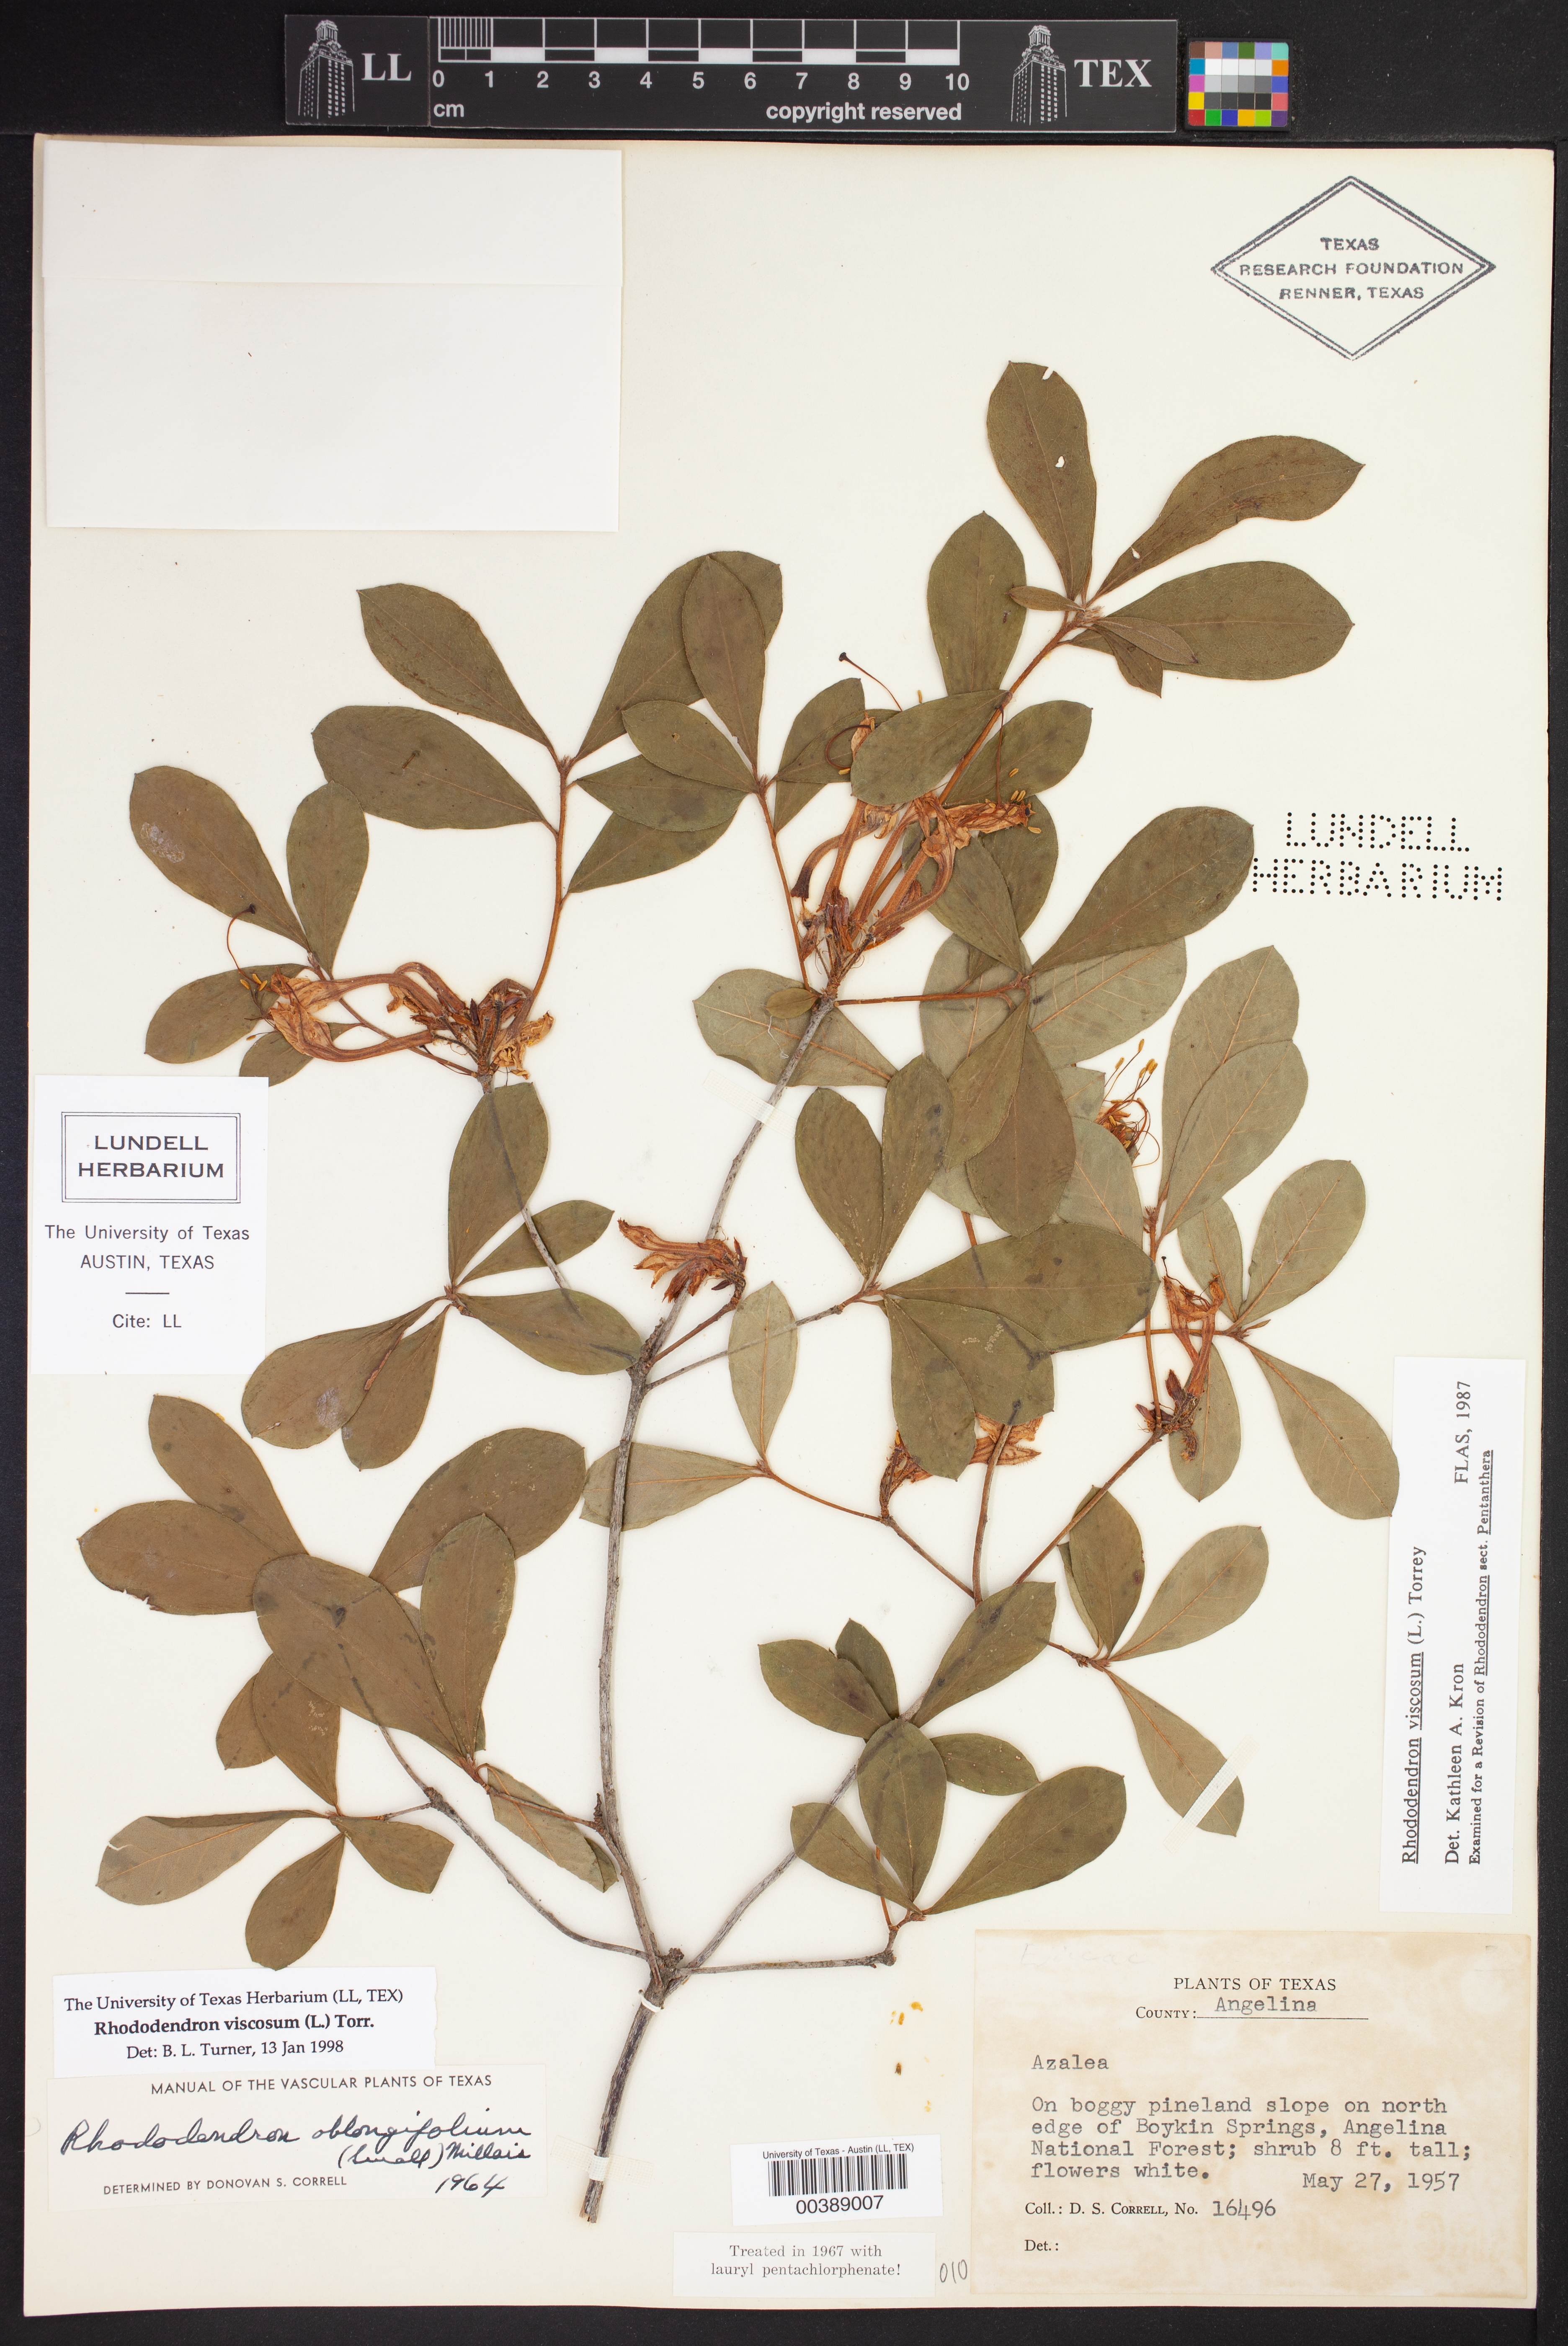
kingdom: Plantae
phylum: Tracheophyta
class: Magnoliopsida
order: Ericales
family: Ericaceae
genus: Rhododendron
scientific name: Rhododendron viscosum
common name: Clammy azalea
